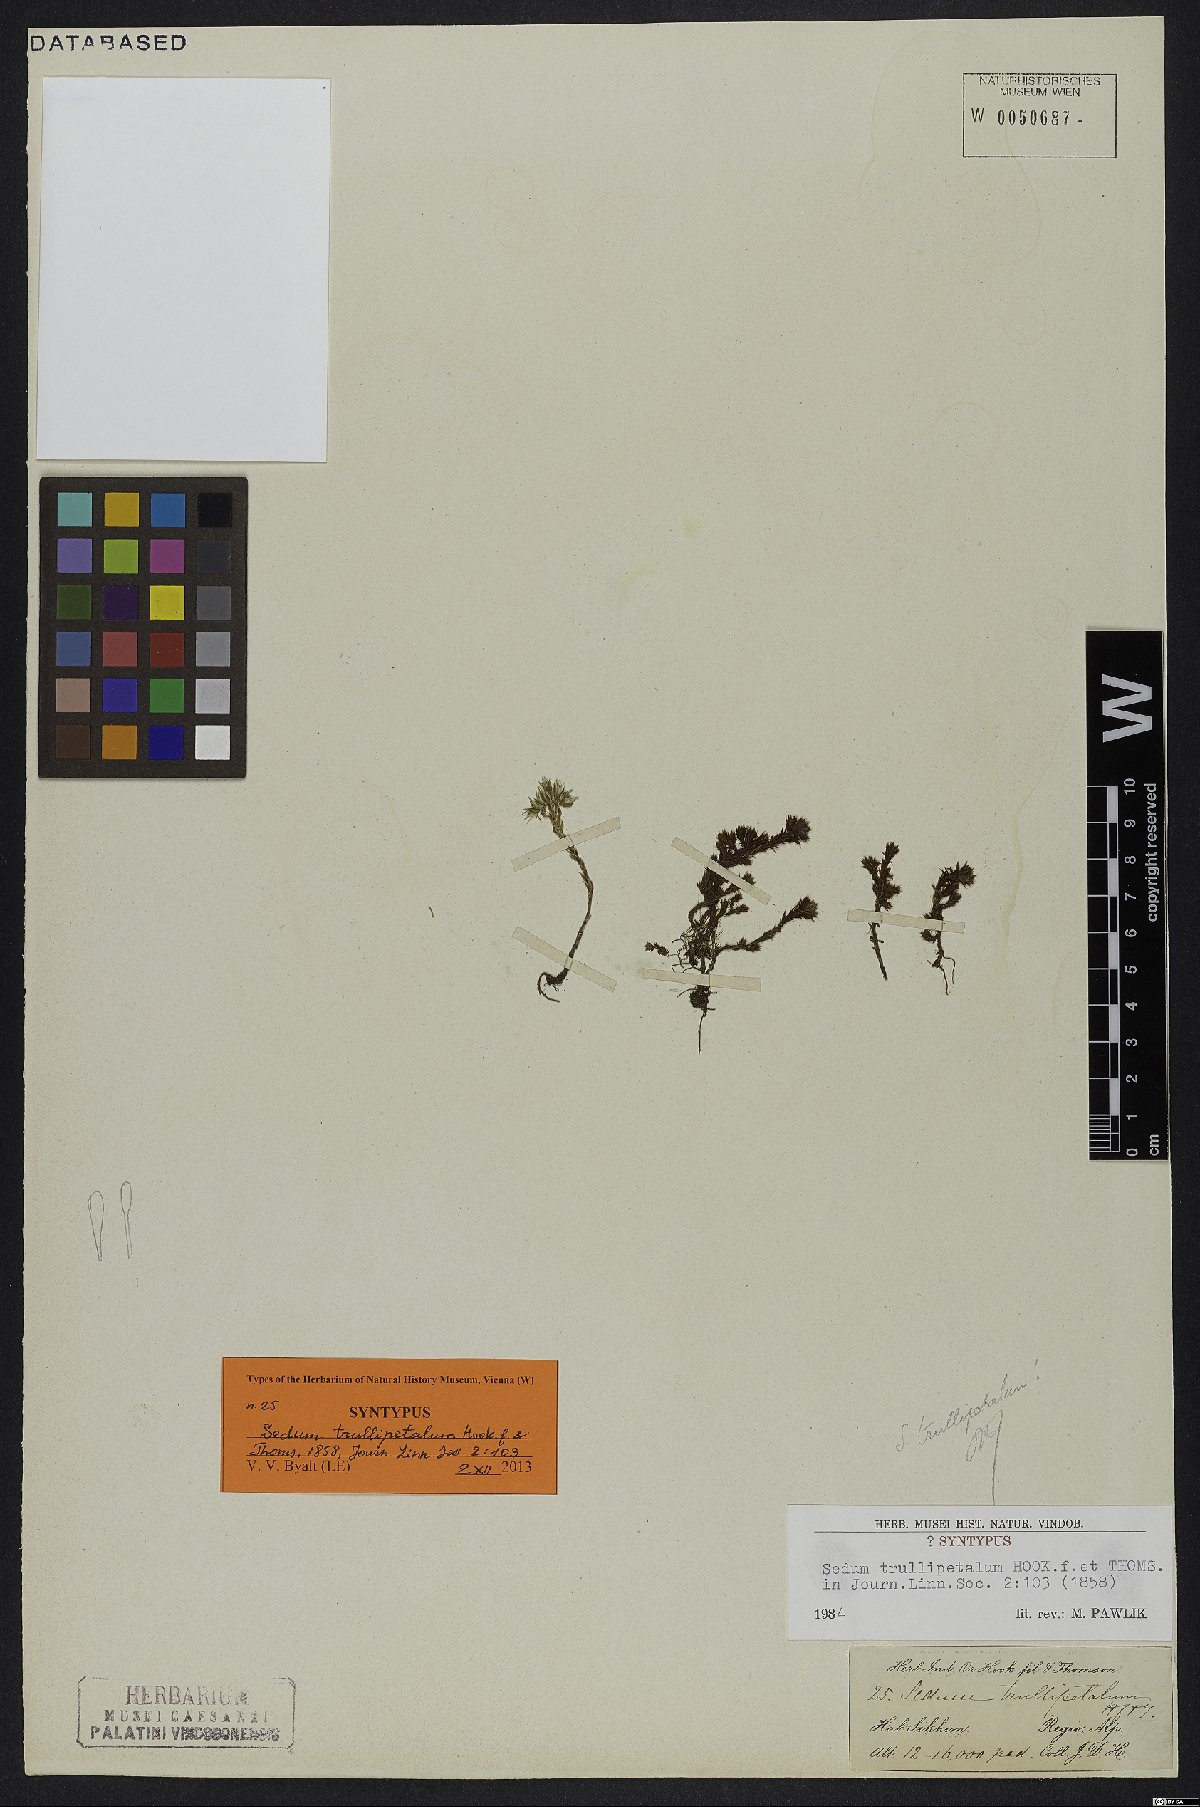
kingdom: Plantae
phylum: Tracheophyta
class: Magnoliopsida
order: Saxifragales
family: Crassulaceae
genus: Sedum
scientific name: Sedum trullipetalum
